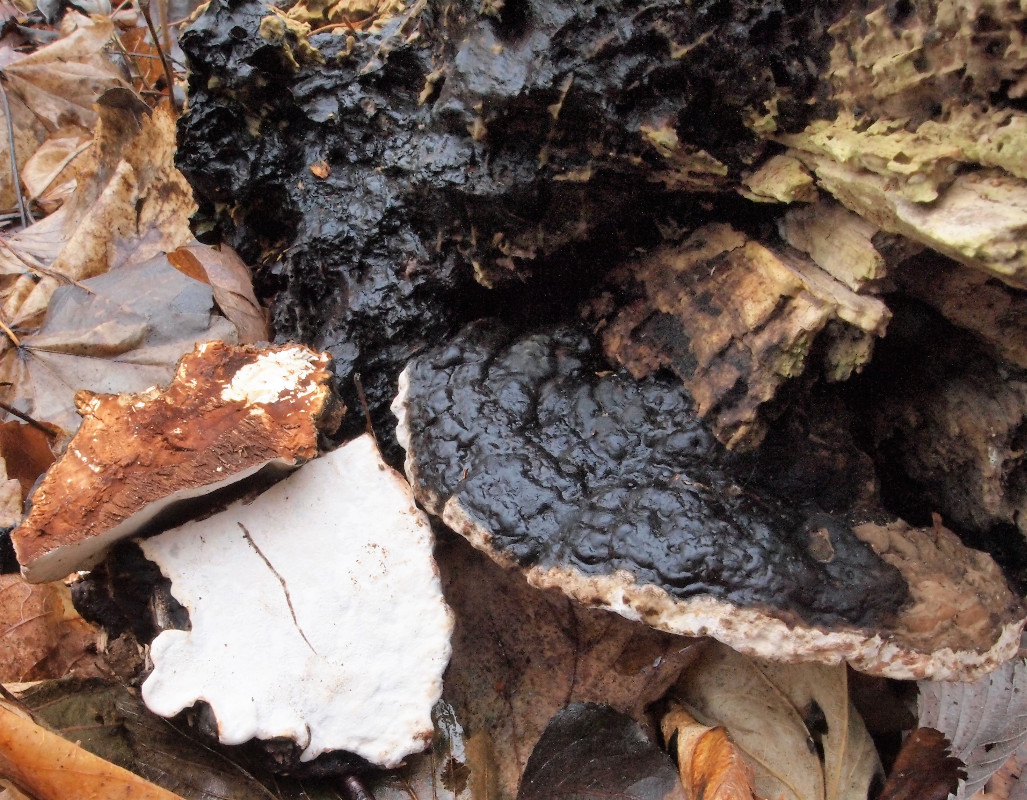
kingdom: Fungi
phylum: Basidiomycota
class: Agaricomycetes
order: Polyporales
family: Polyporaceae
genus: Ganoderma
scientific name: Ganoderma applanatum
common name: flad lakporesvamp
